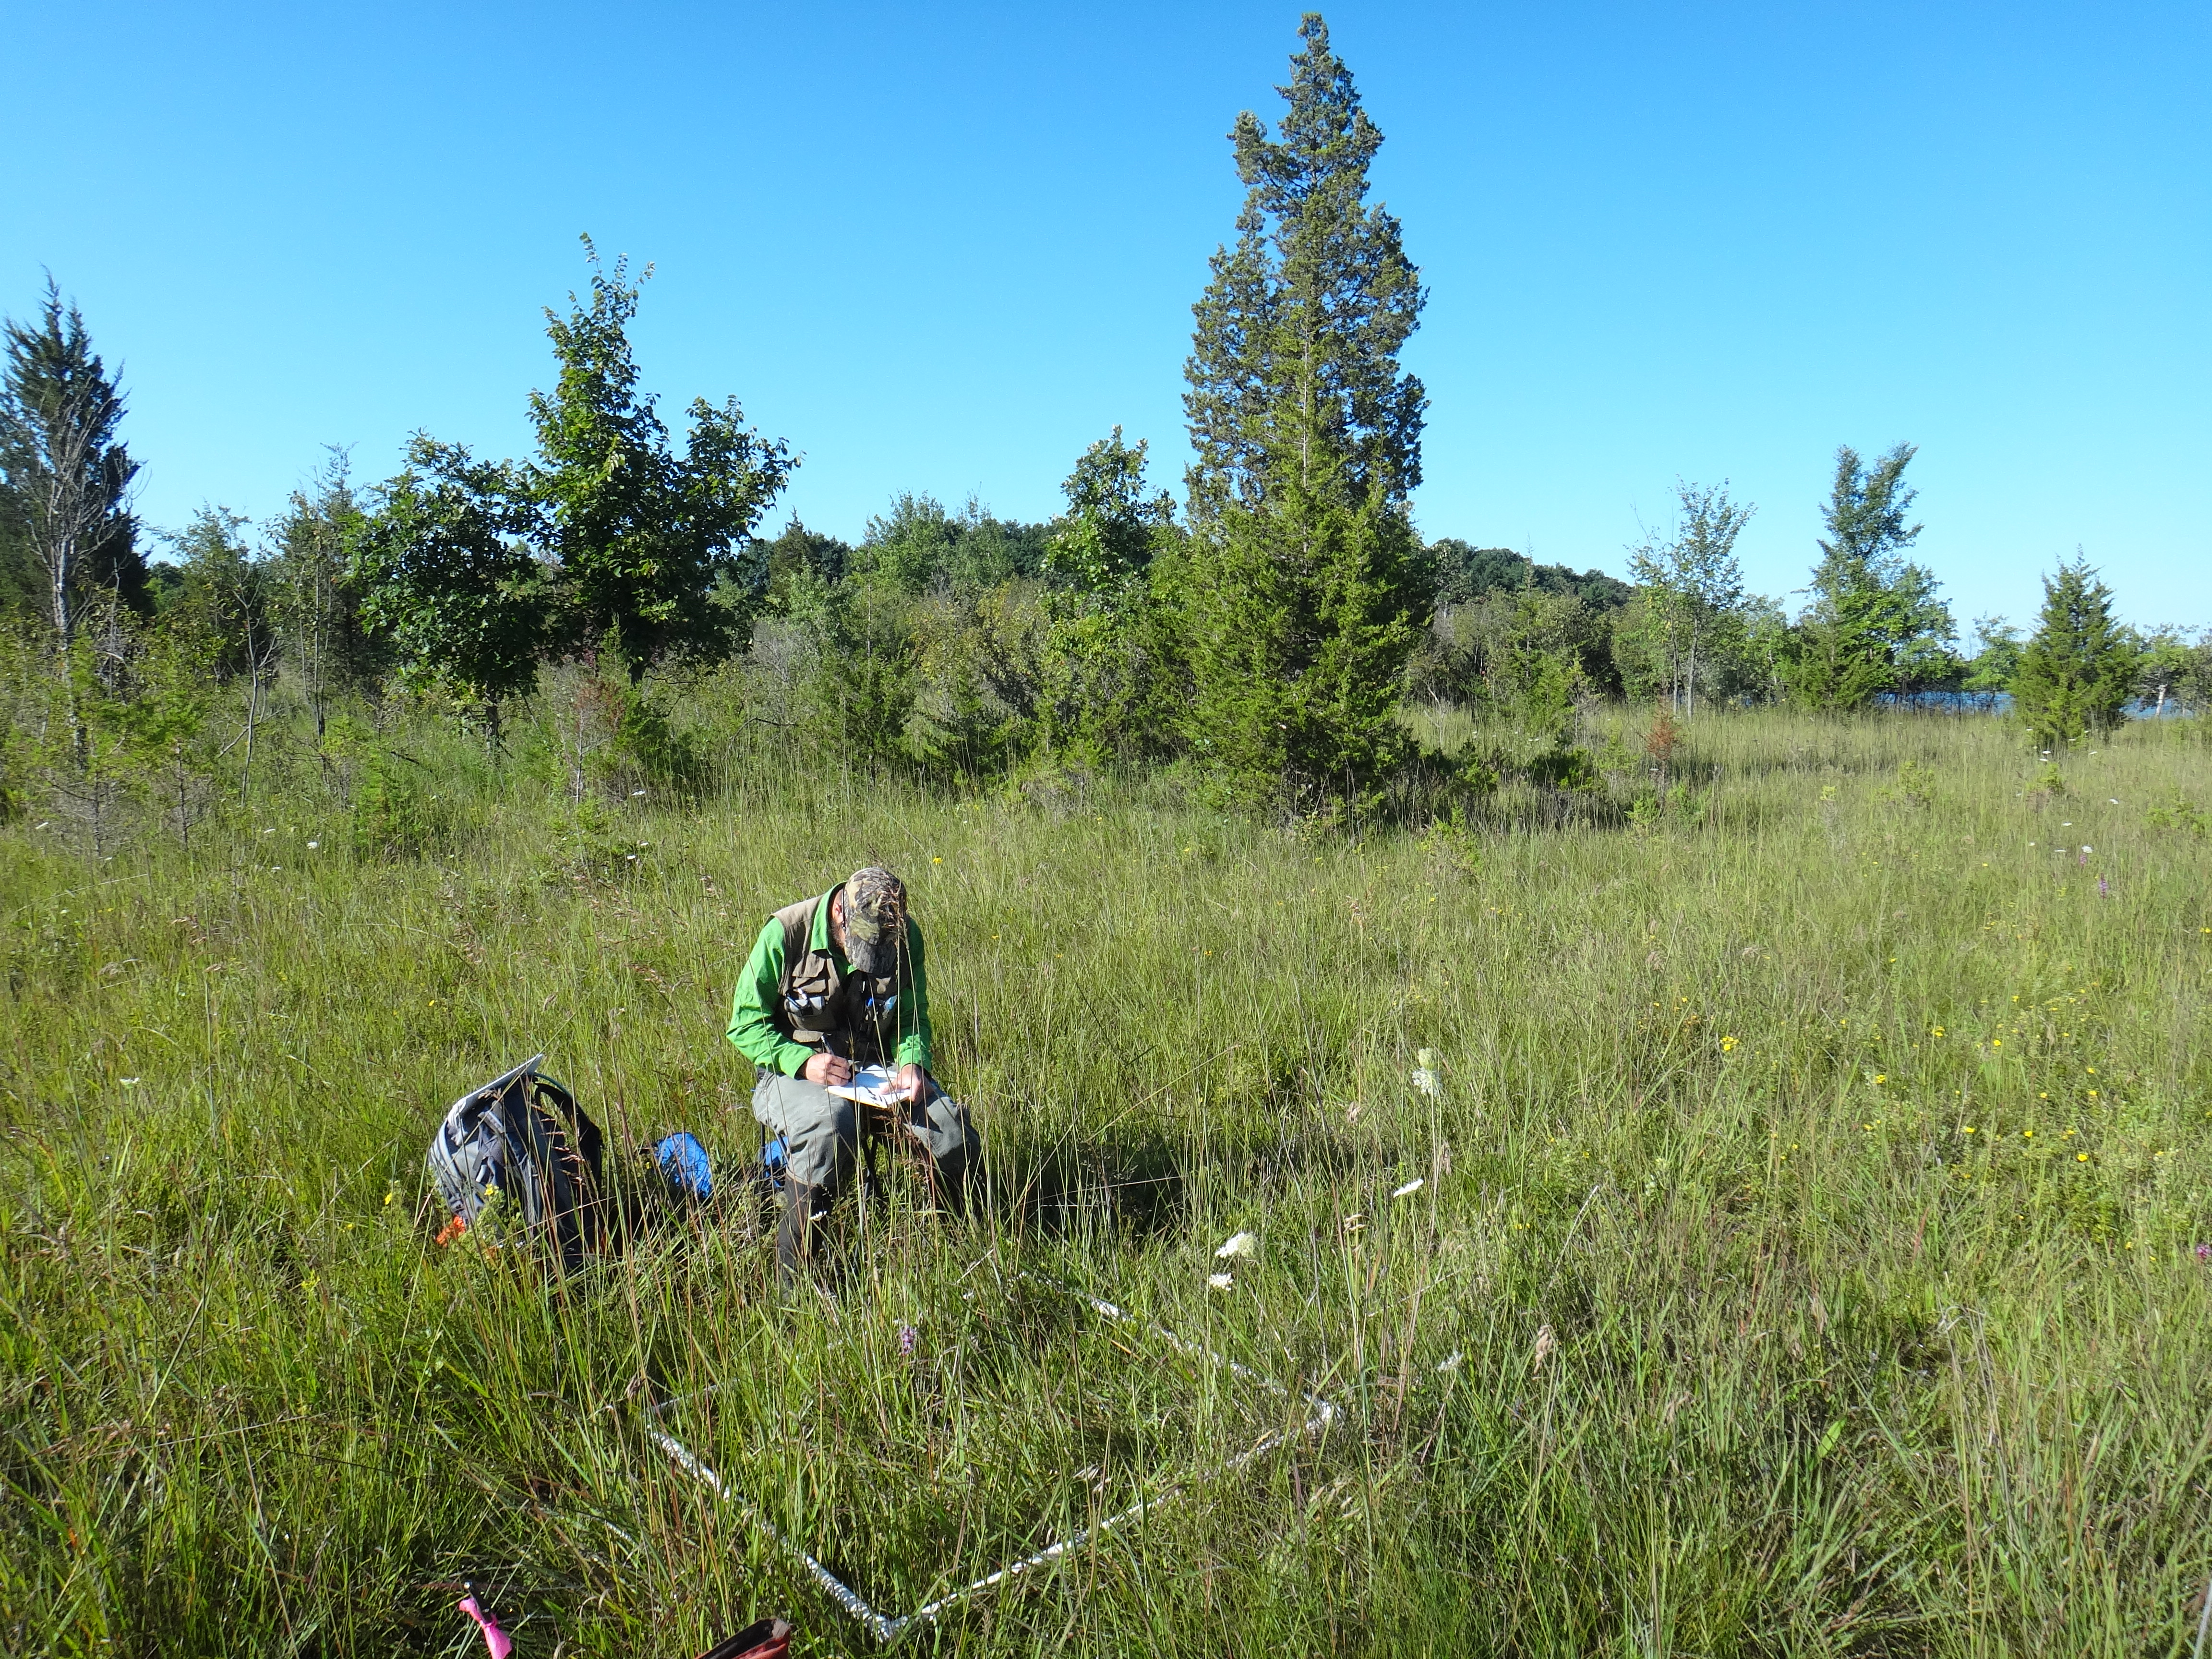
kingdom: Plantae
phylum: Tracheophyta
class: Liliopsida
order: Poales
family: Poaceae
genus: Bromus
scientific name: Bromus pubescens
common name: Hairy wood brome grass
